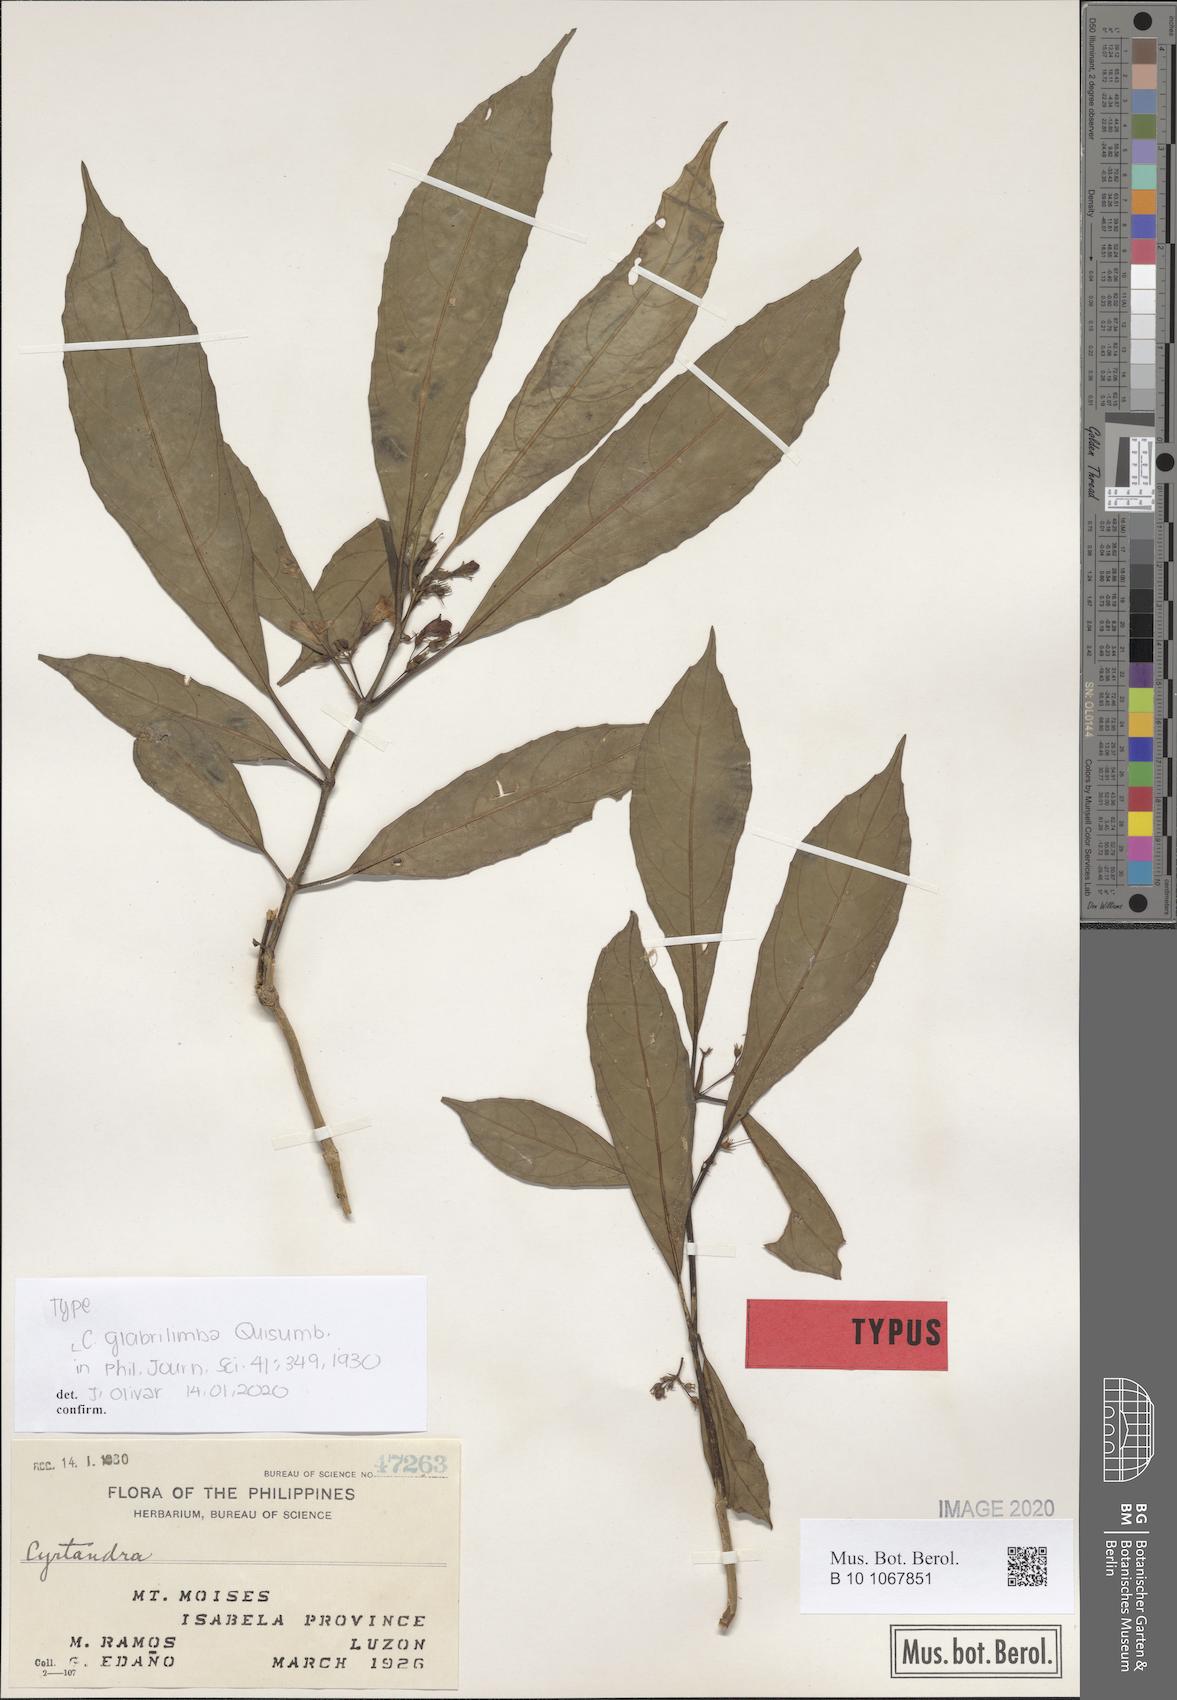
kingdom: Plantae
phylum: Tracheophyta
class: Magnoliopsida
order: Lamiales
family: Gesneriaceae
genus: Cyrtandra
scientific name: Cyrtandra glabrilimba
